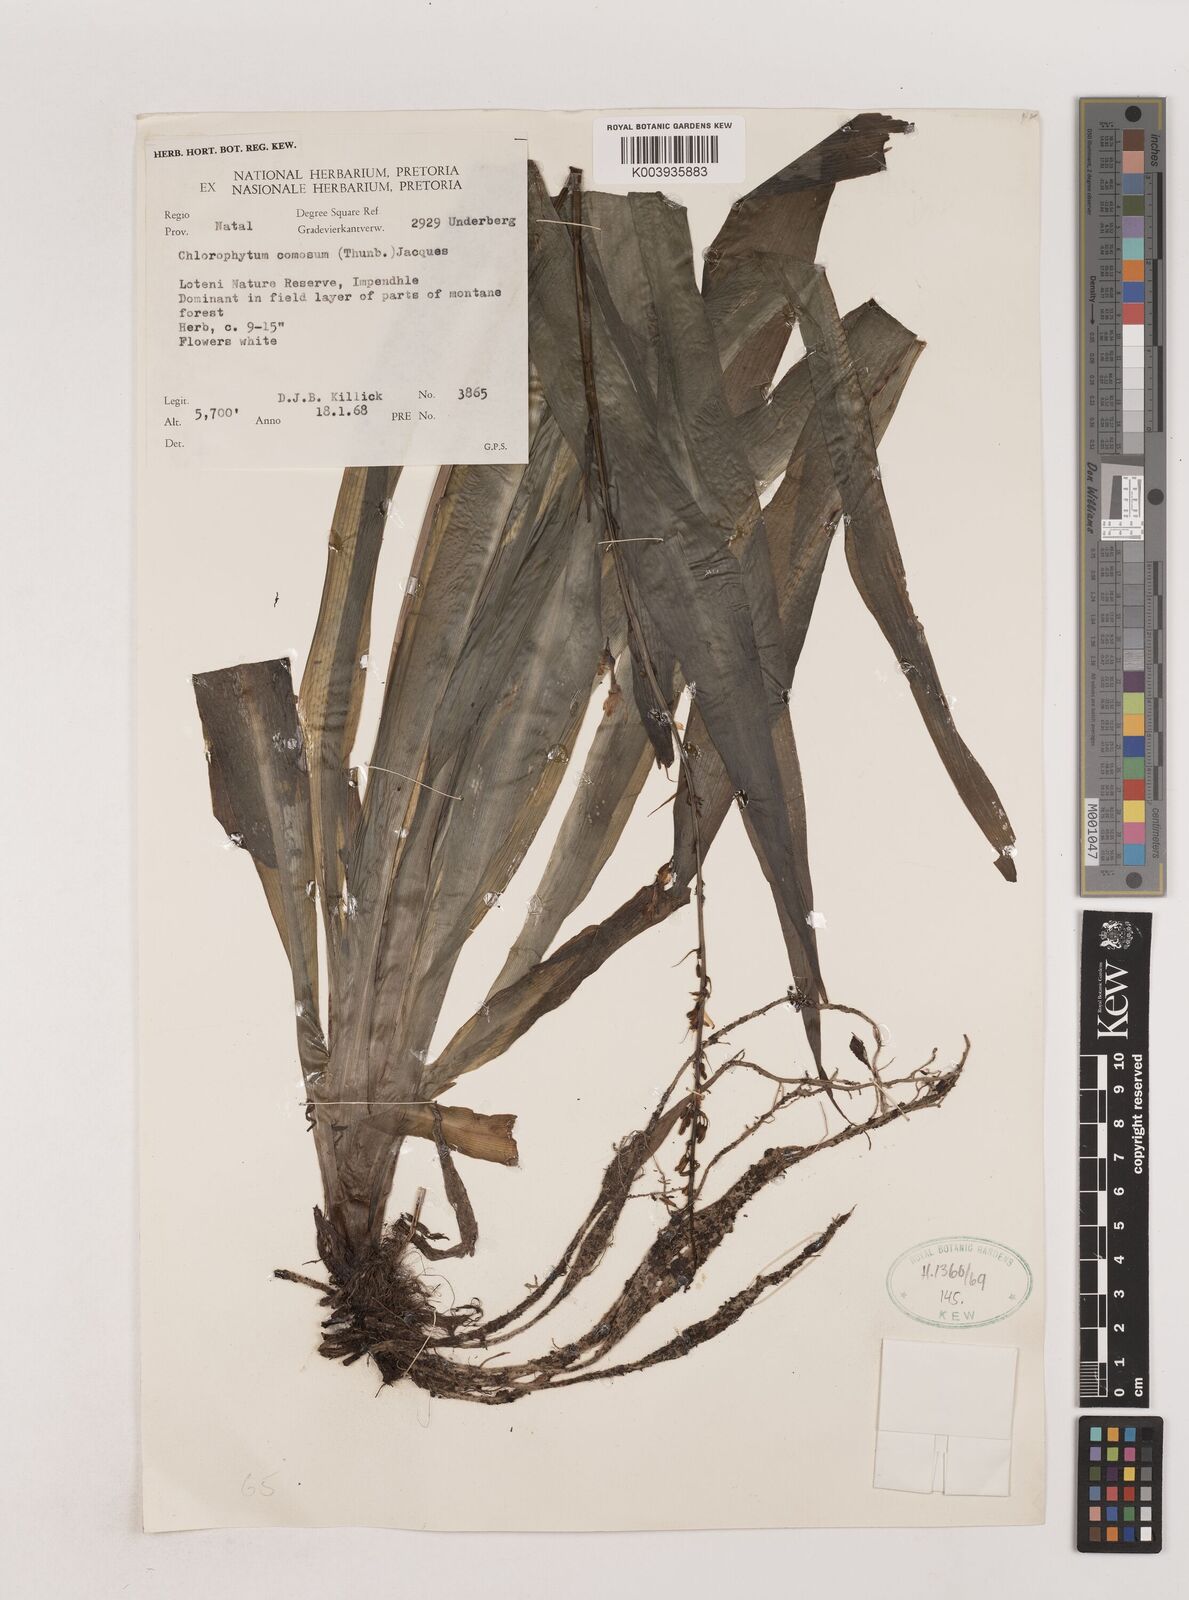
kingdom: Plantae
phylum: Tracheophyta
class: Liliopsida
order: Asparagales
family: Asparagaceae
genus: Chlorophytum
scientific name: Chlorophytum comosum
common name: Spider plant
